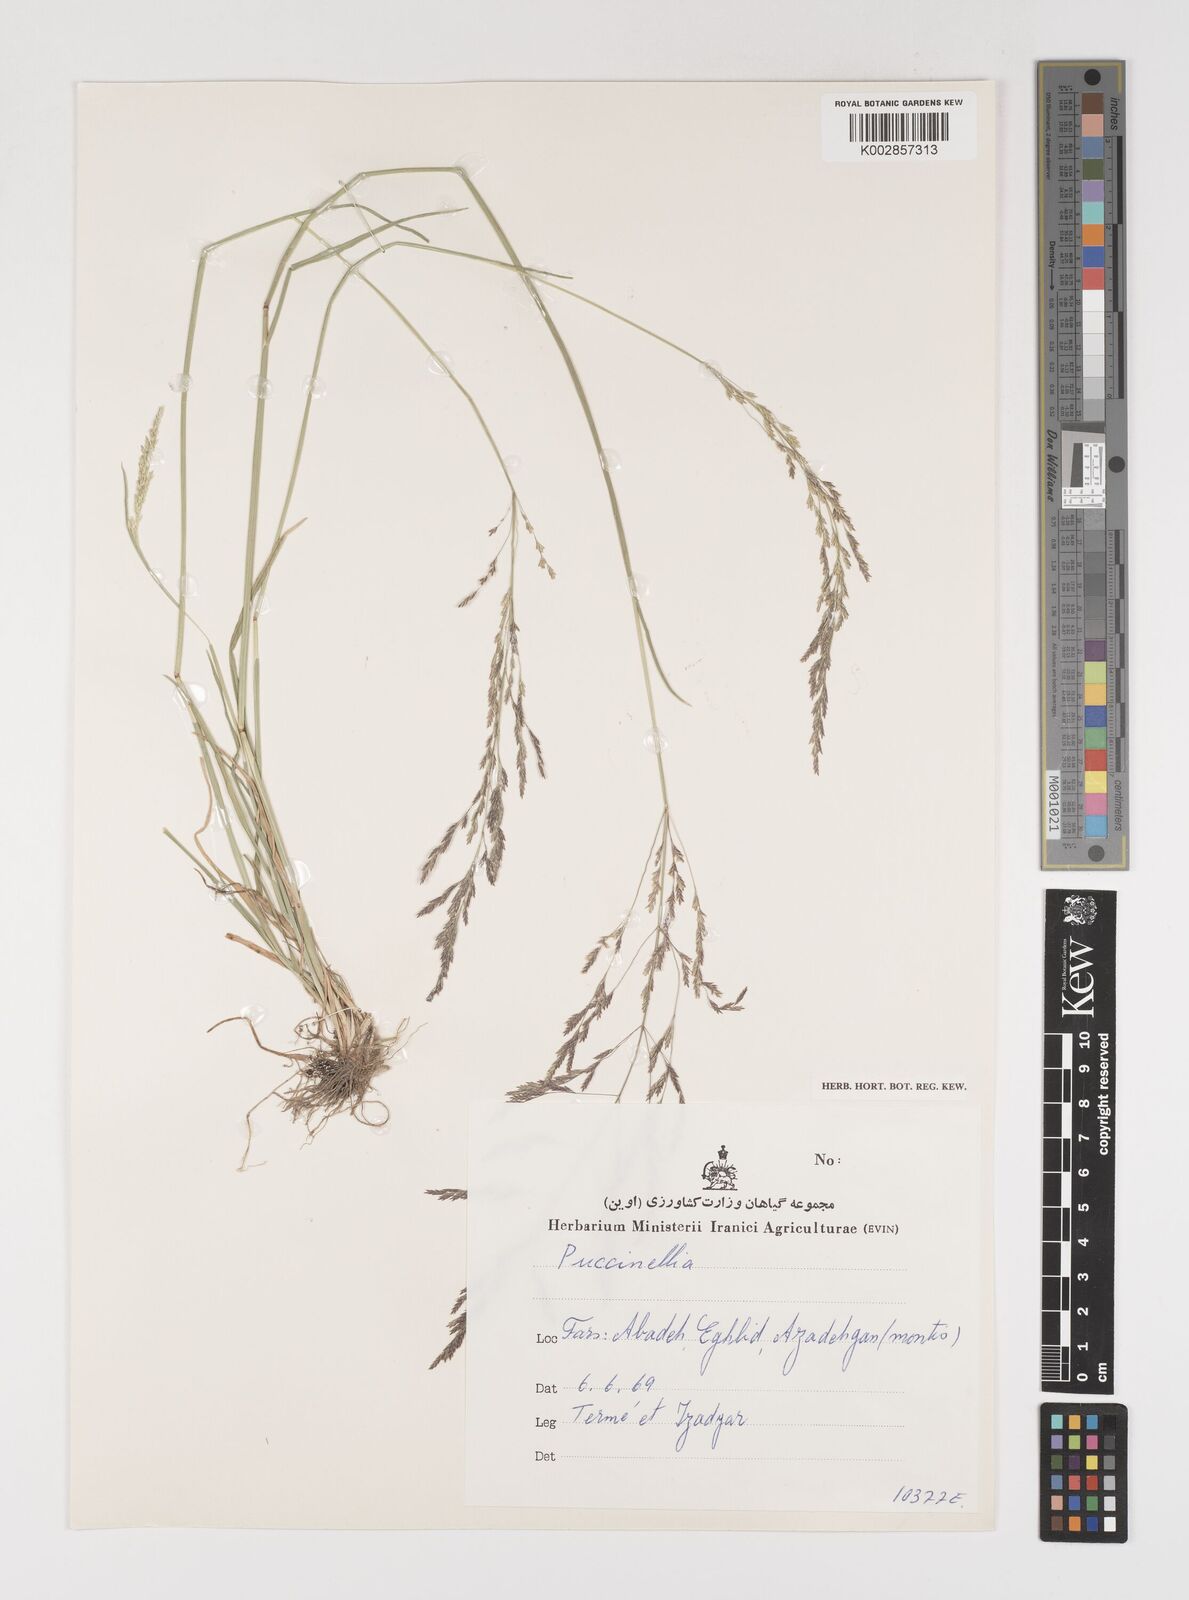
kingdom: Plantae
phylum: Tracheophyta
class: Liliopsida
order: Poales
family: Poaceae
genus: Puccinellia
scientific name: Puccinellia
